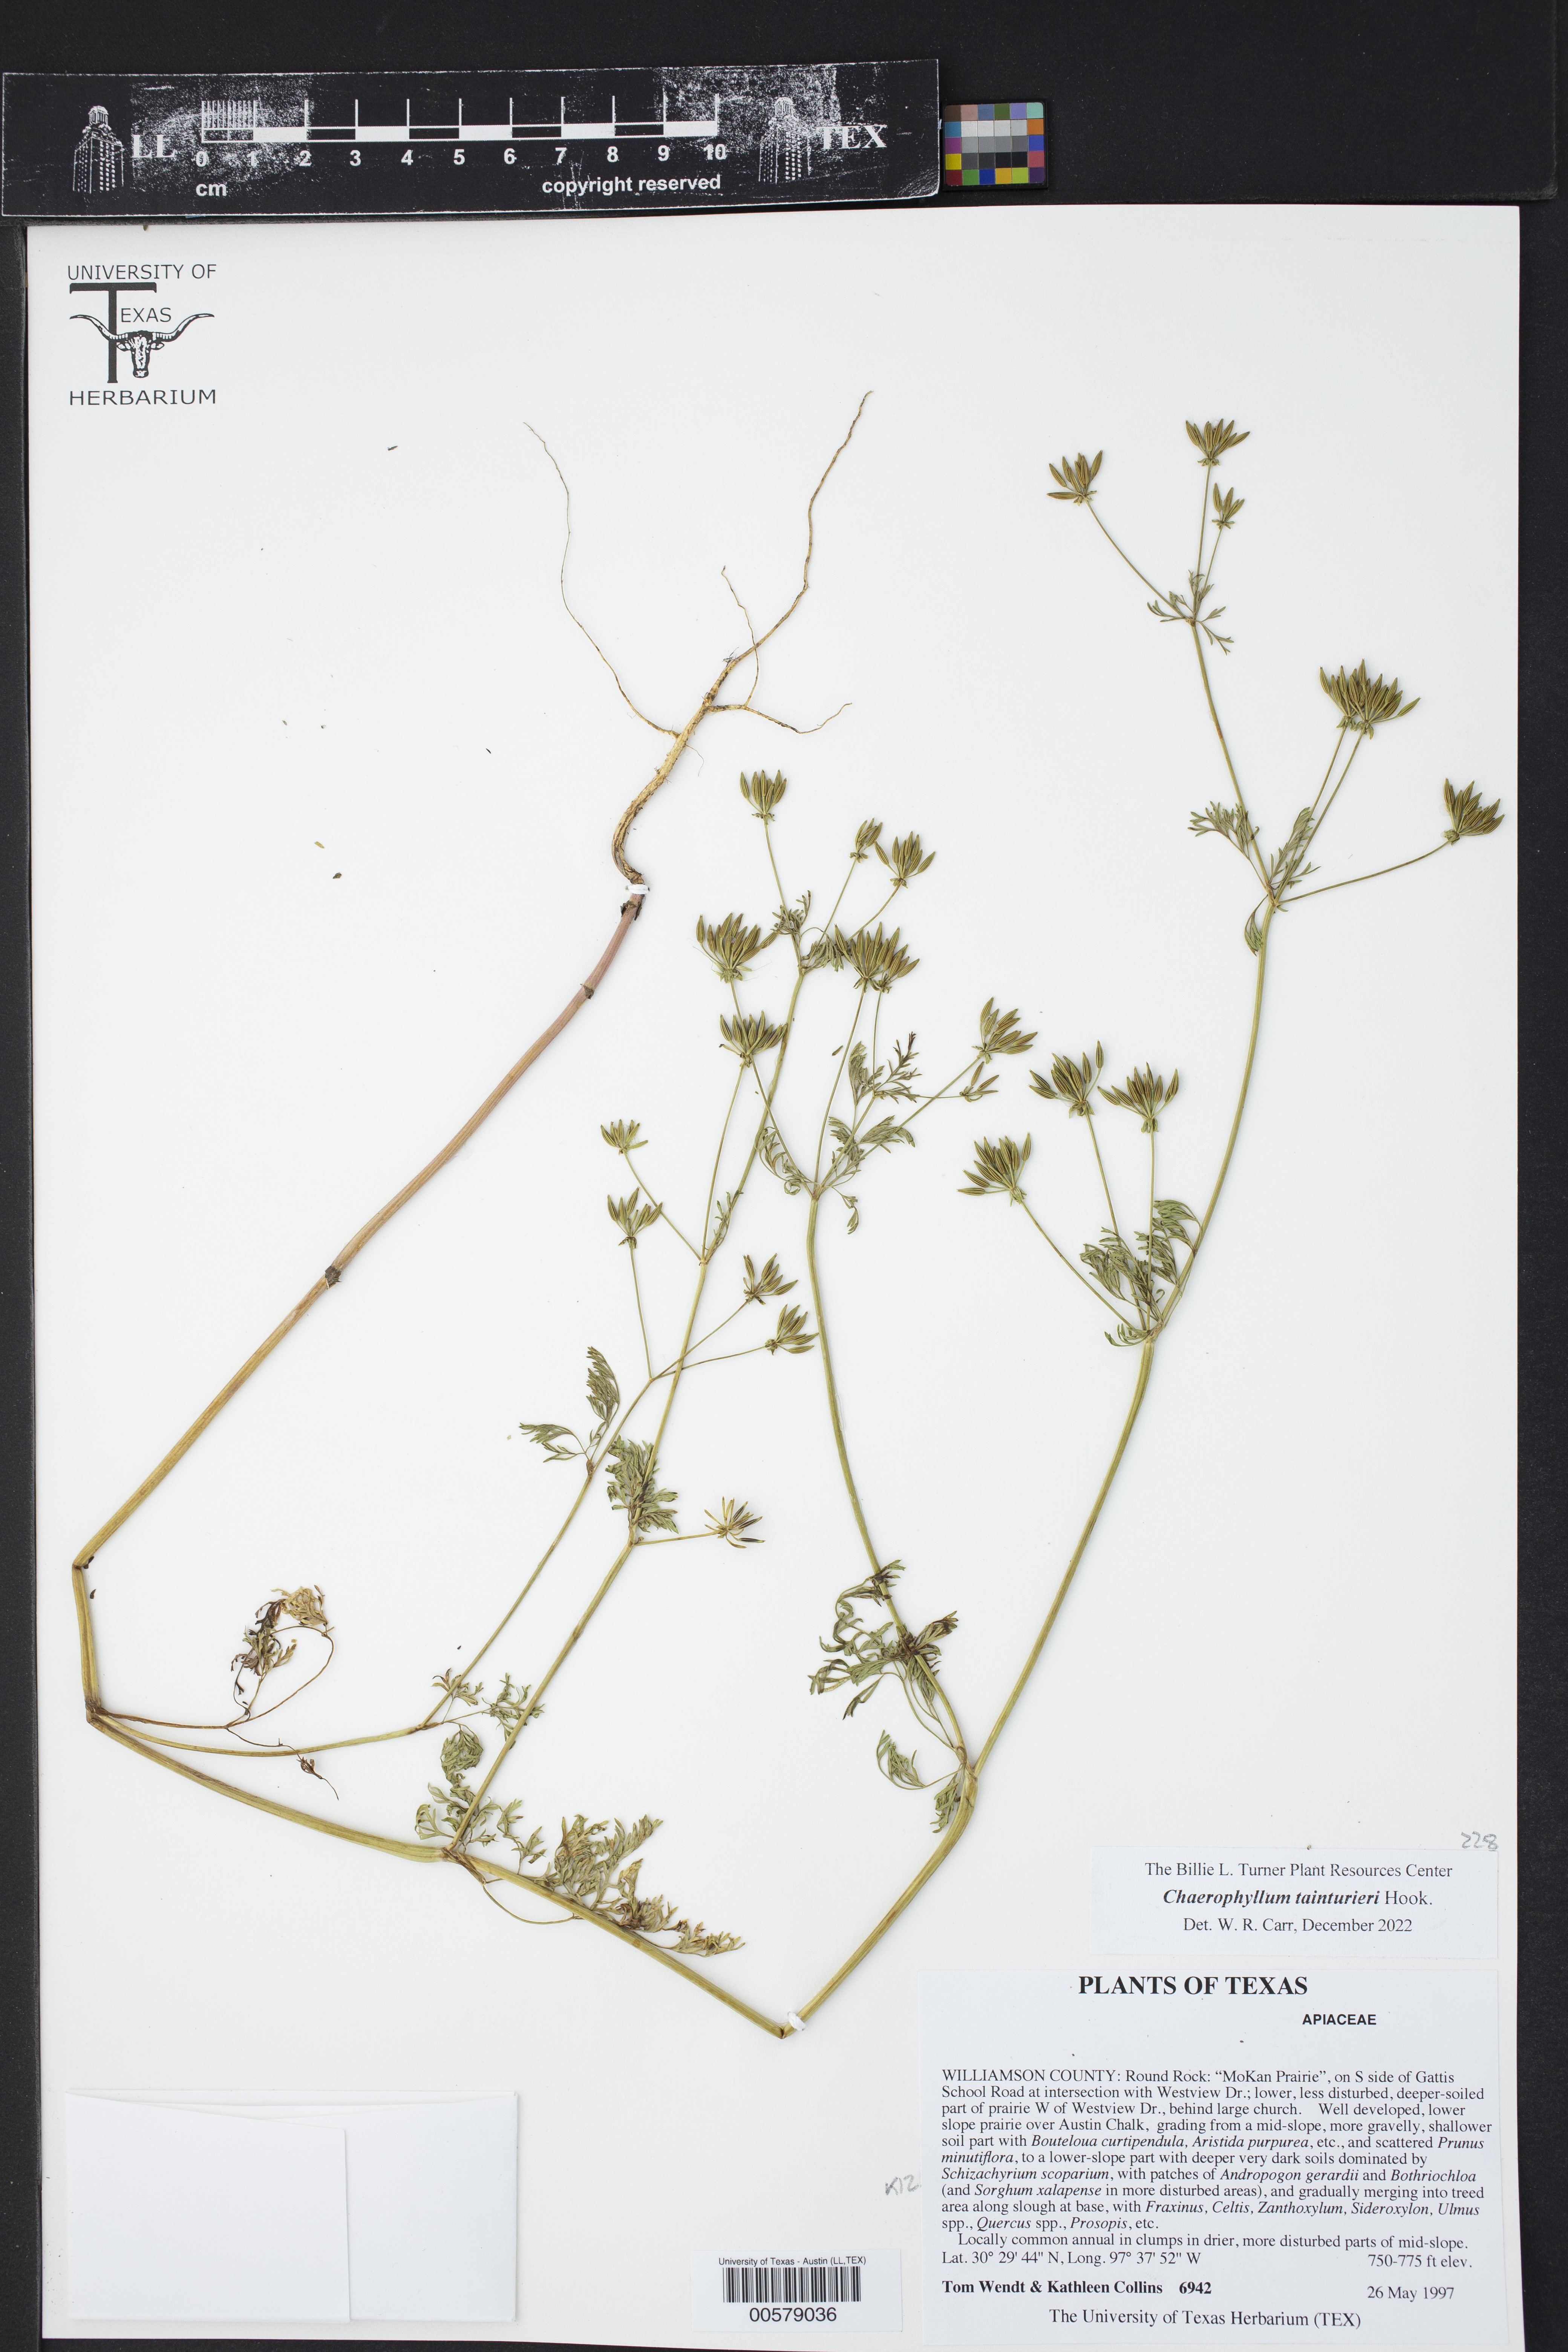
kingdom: Plantae
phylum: Tracheophyta
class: Magnoliopsida
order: Apiales
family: Apiaceae
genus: Chaerophyllum
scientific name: Chaerophyllum tainturieri
